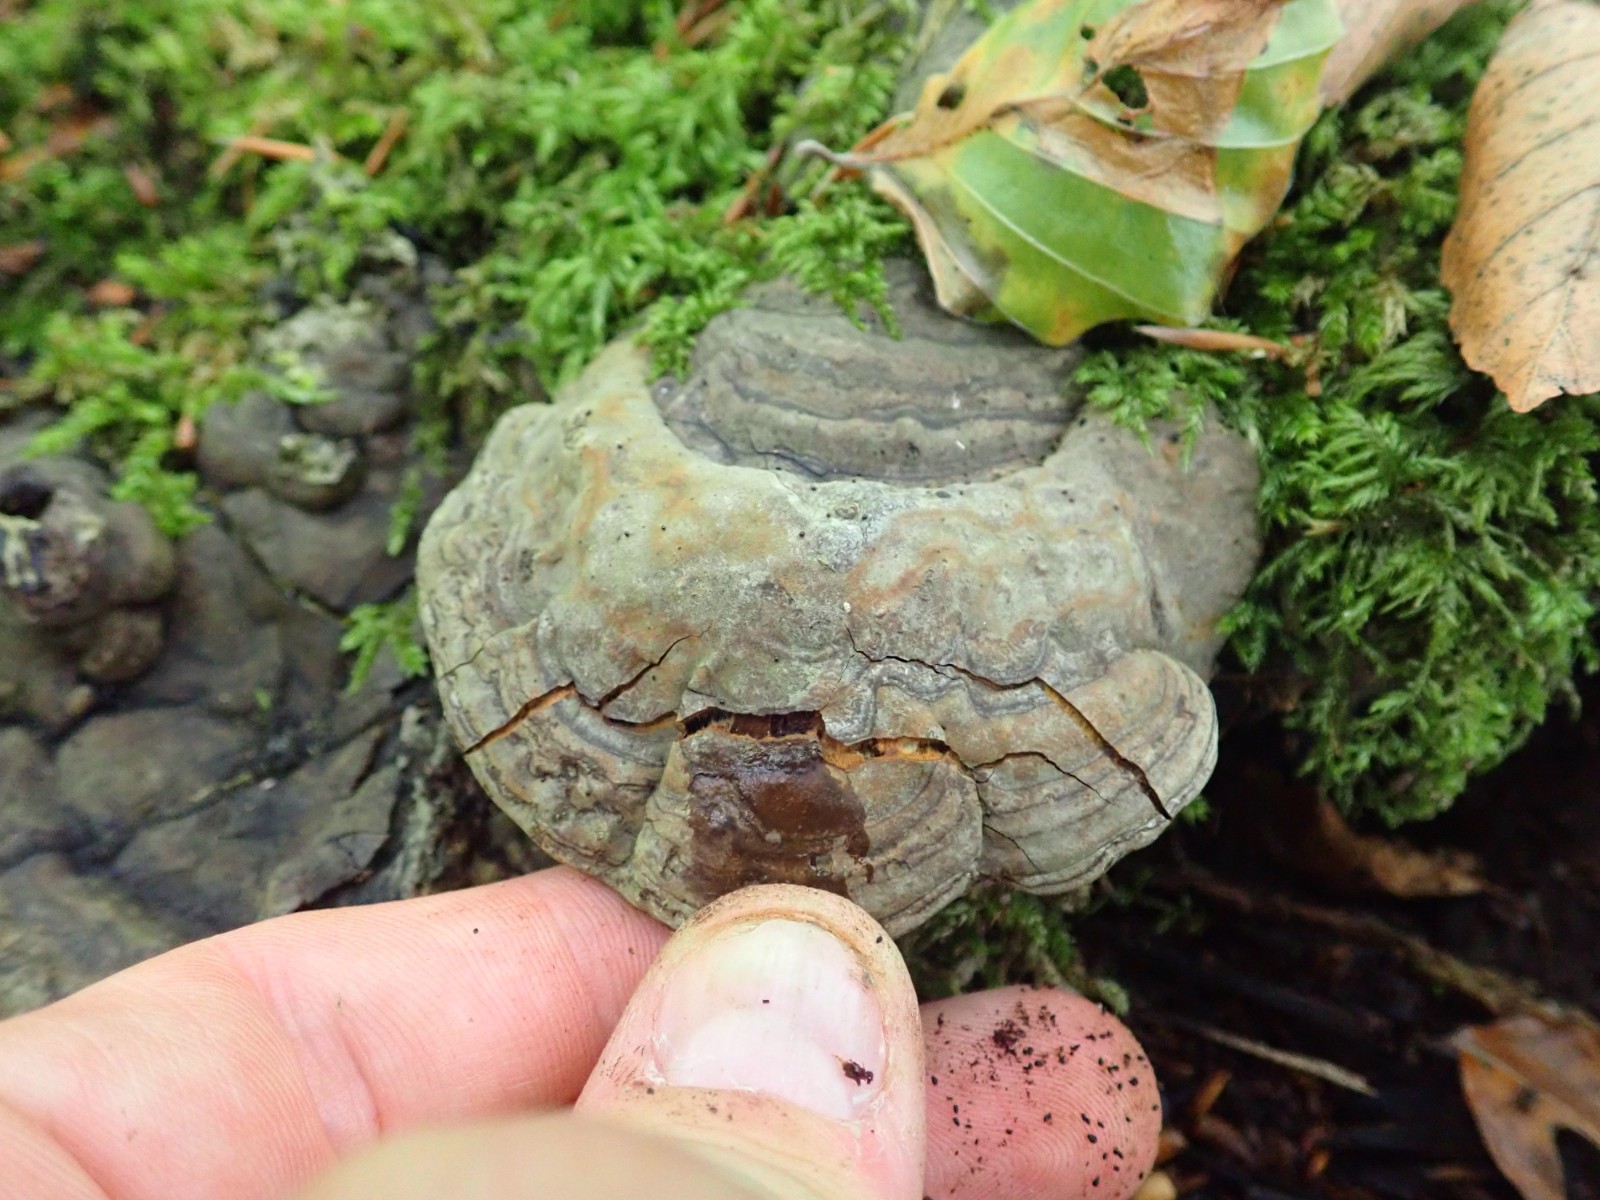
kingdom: Fungi
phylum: Basidiomycota
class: Agaricomycetes
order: Polyporales
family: Polyporaceae
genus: Ganoderma
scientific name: Ganoderma applanatum
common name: flad lakporesvamp
